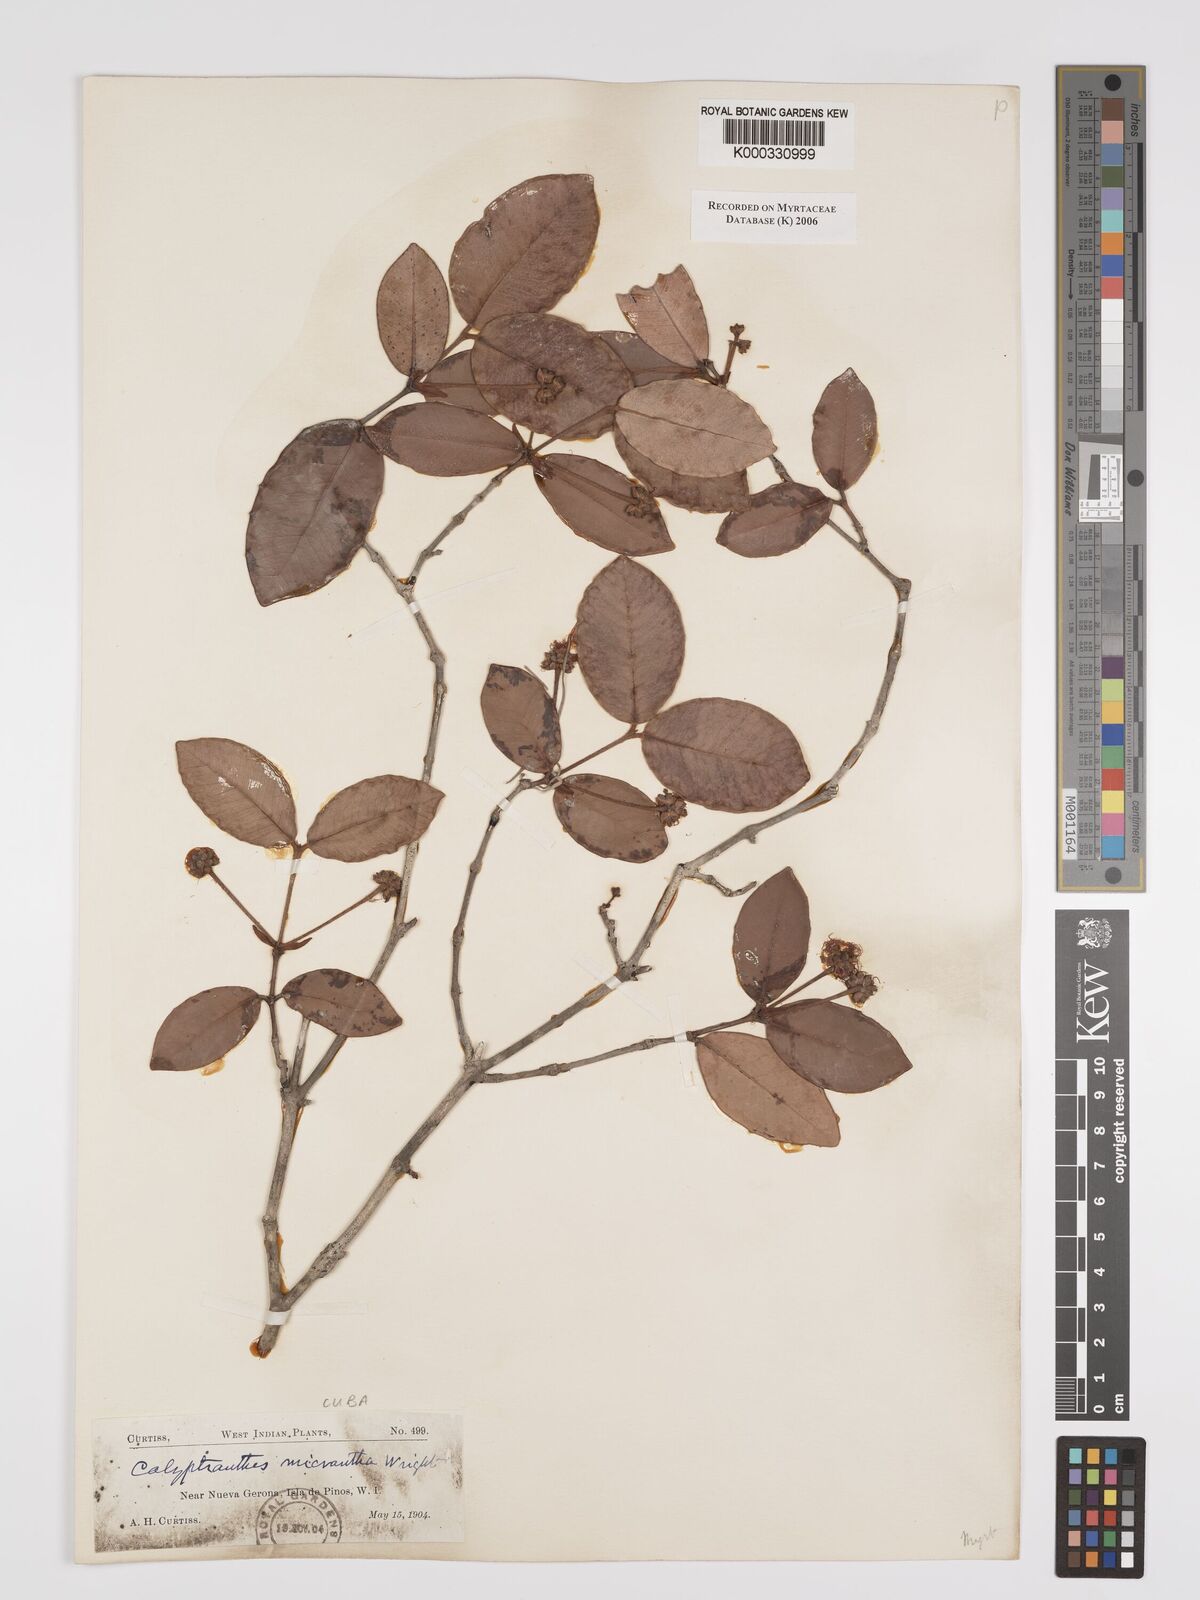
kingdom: Plantae
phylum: Tracheophyta
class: Magnoliopsida
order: Myrtales
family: Myrtaceae
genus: Myrcia
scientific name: Myrcia parviantha
